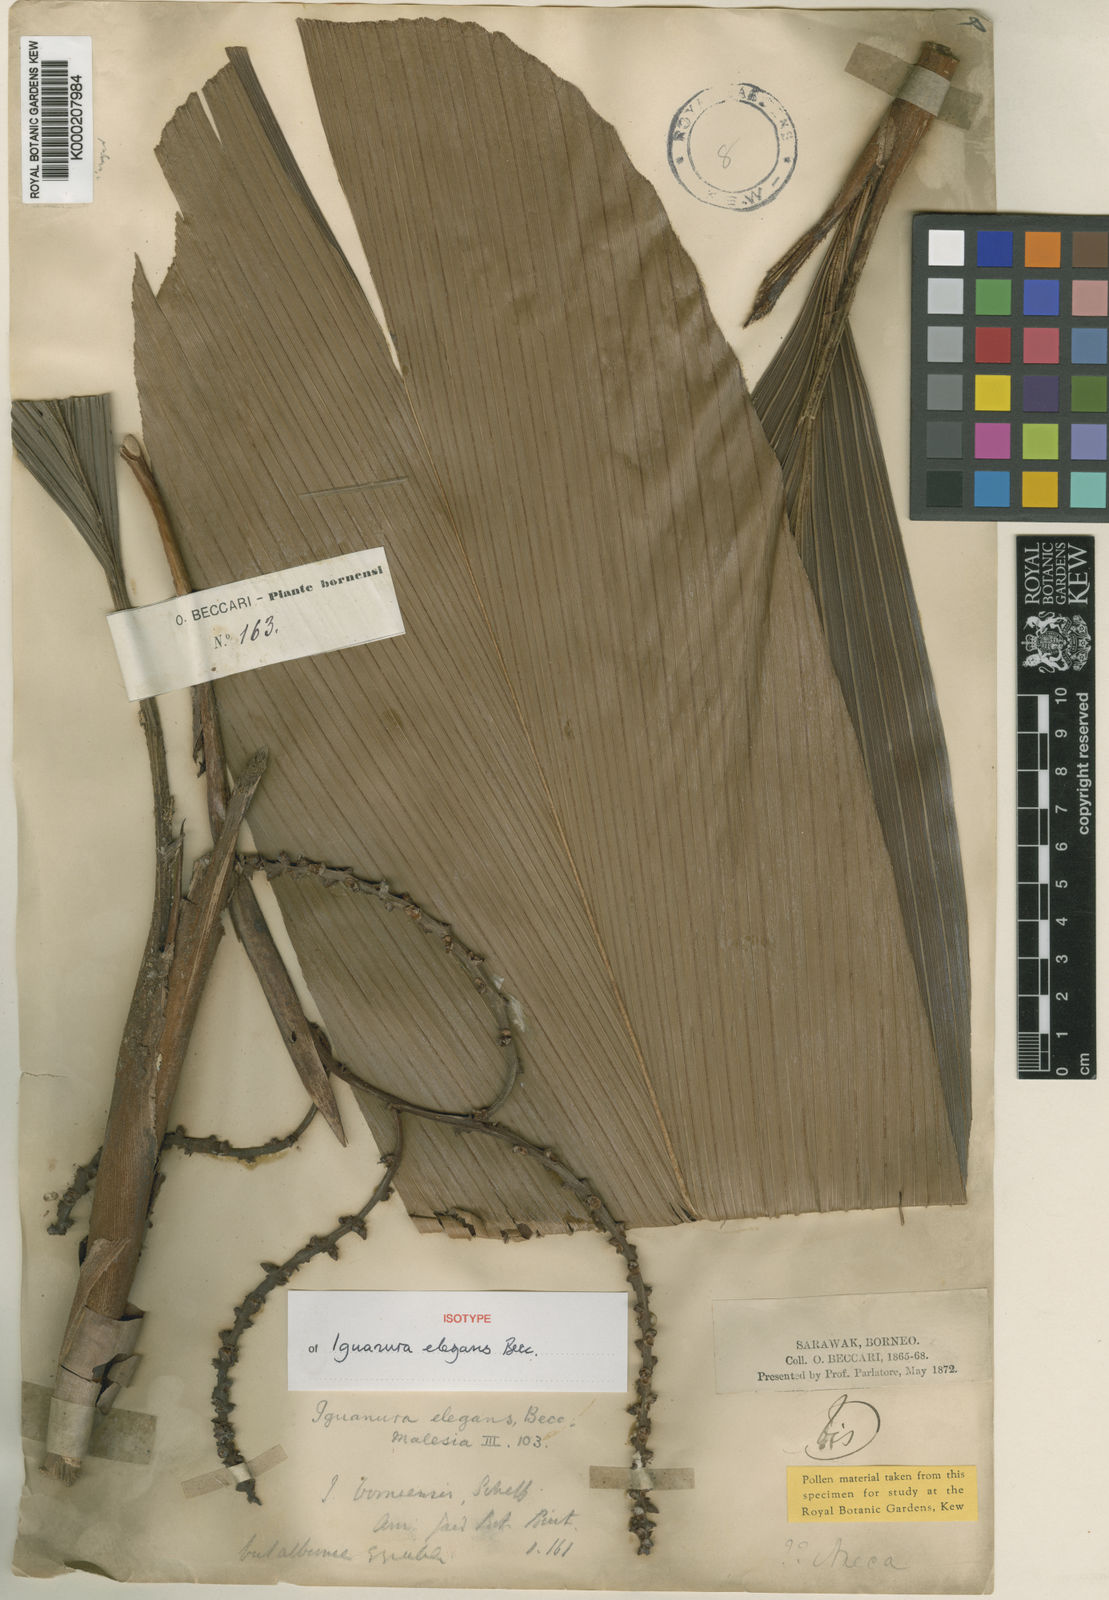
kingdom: Plantae
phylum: Tracheophyta
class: Liliopsida
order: Arecales
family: Arecaceae
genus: Iguanura
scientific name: Iguanura elegans
